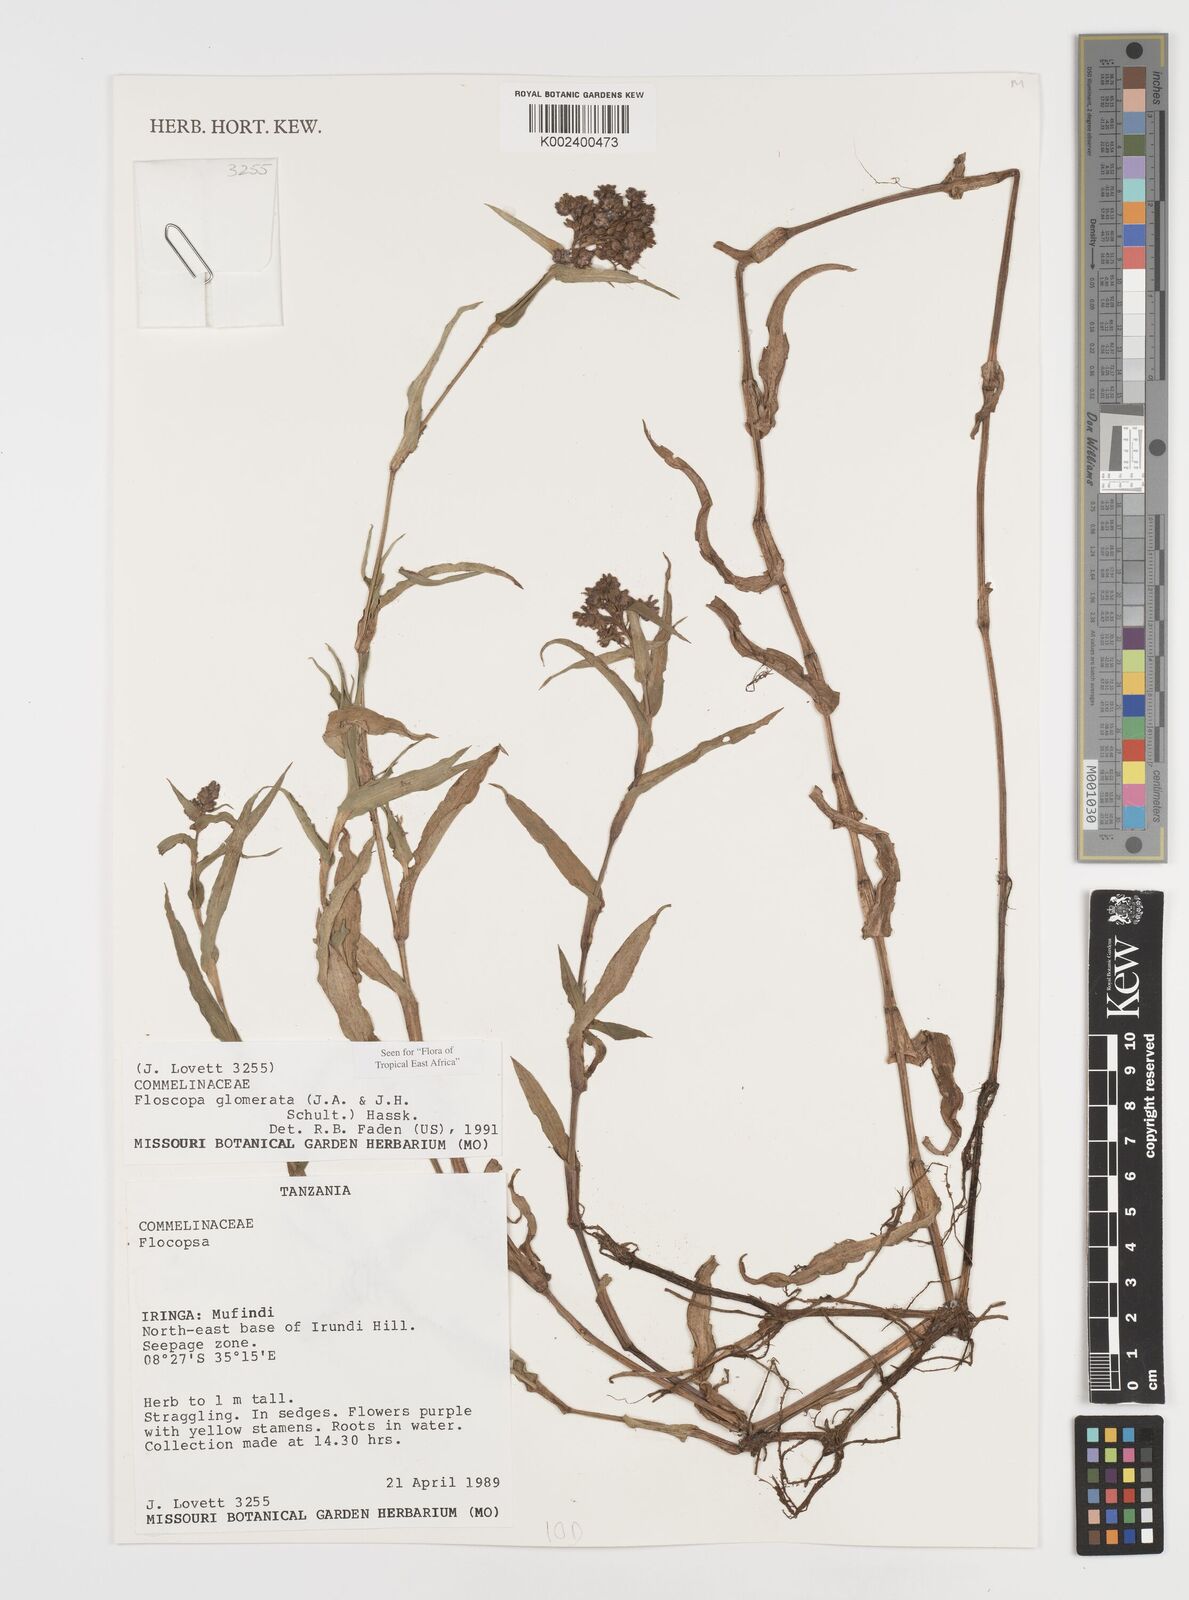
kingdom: Plantae
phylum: Tracheophyta
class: Liliopsida
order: Commelinales
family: Commelinaceae
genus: Floscopa
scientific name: Floscopa glomerata
